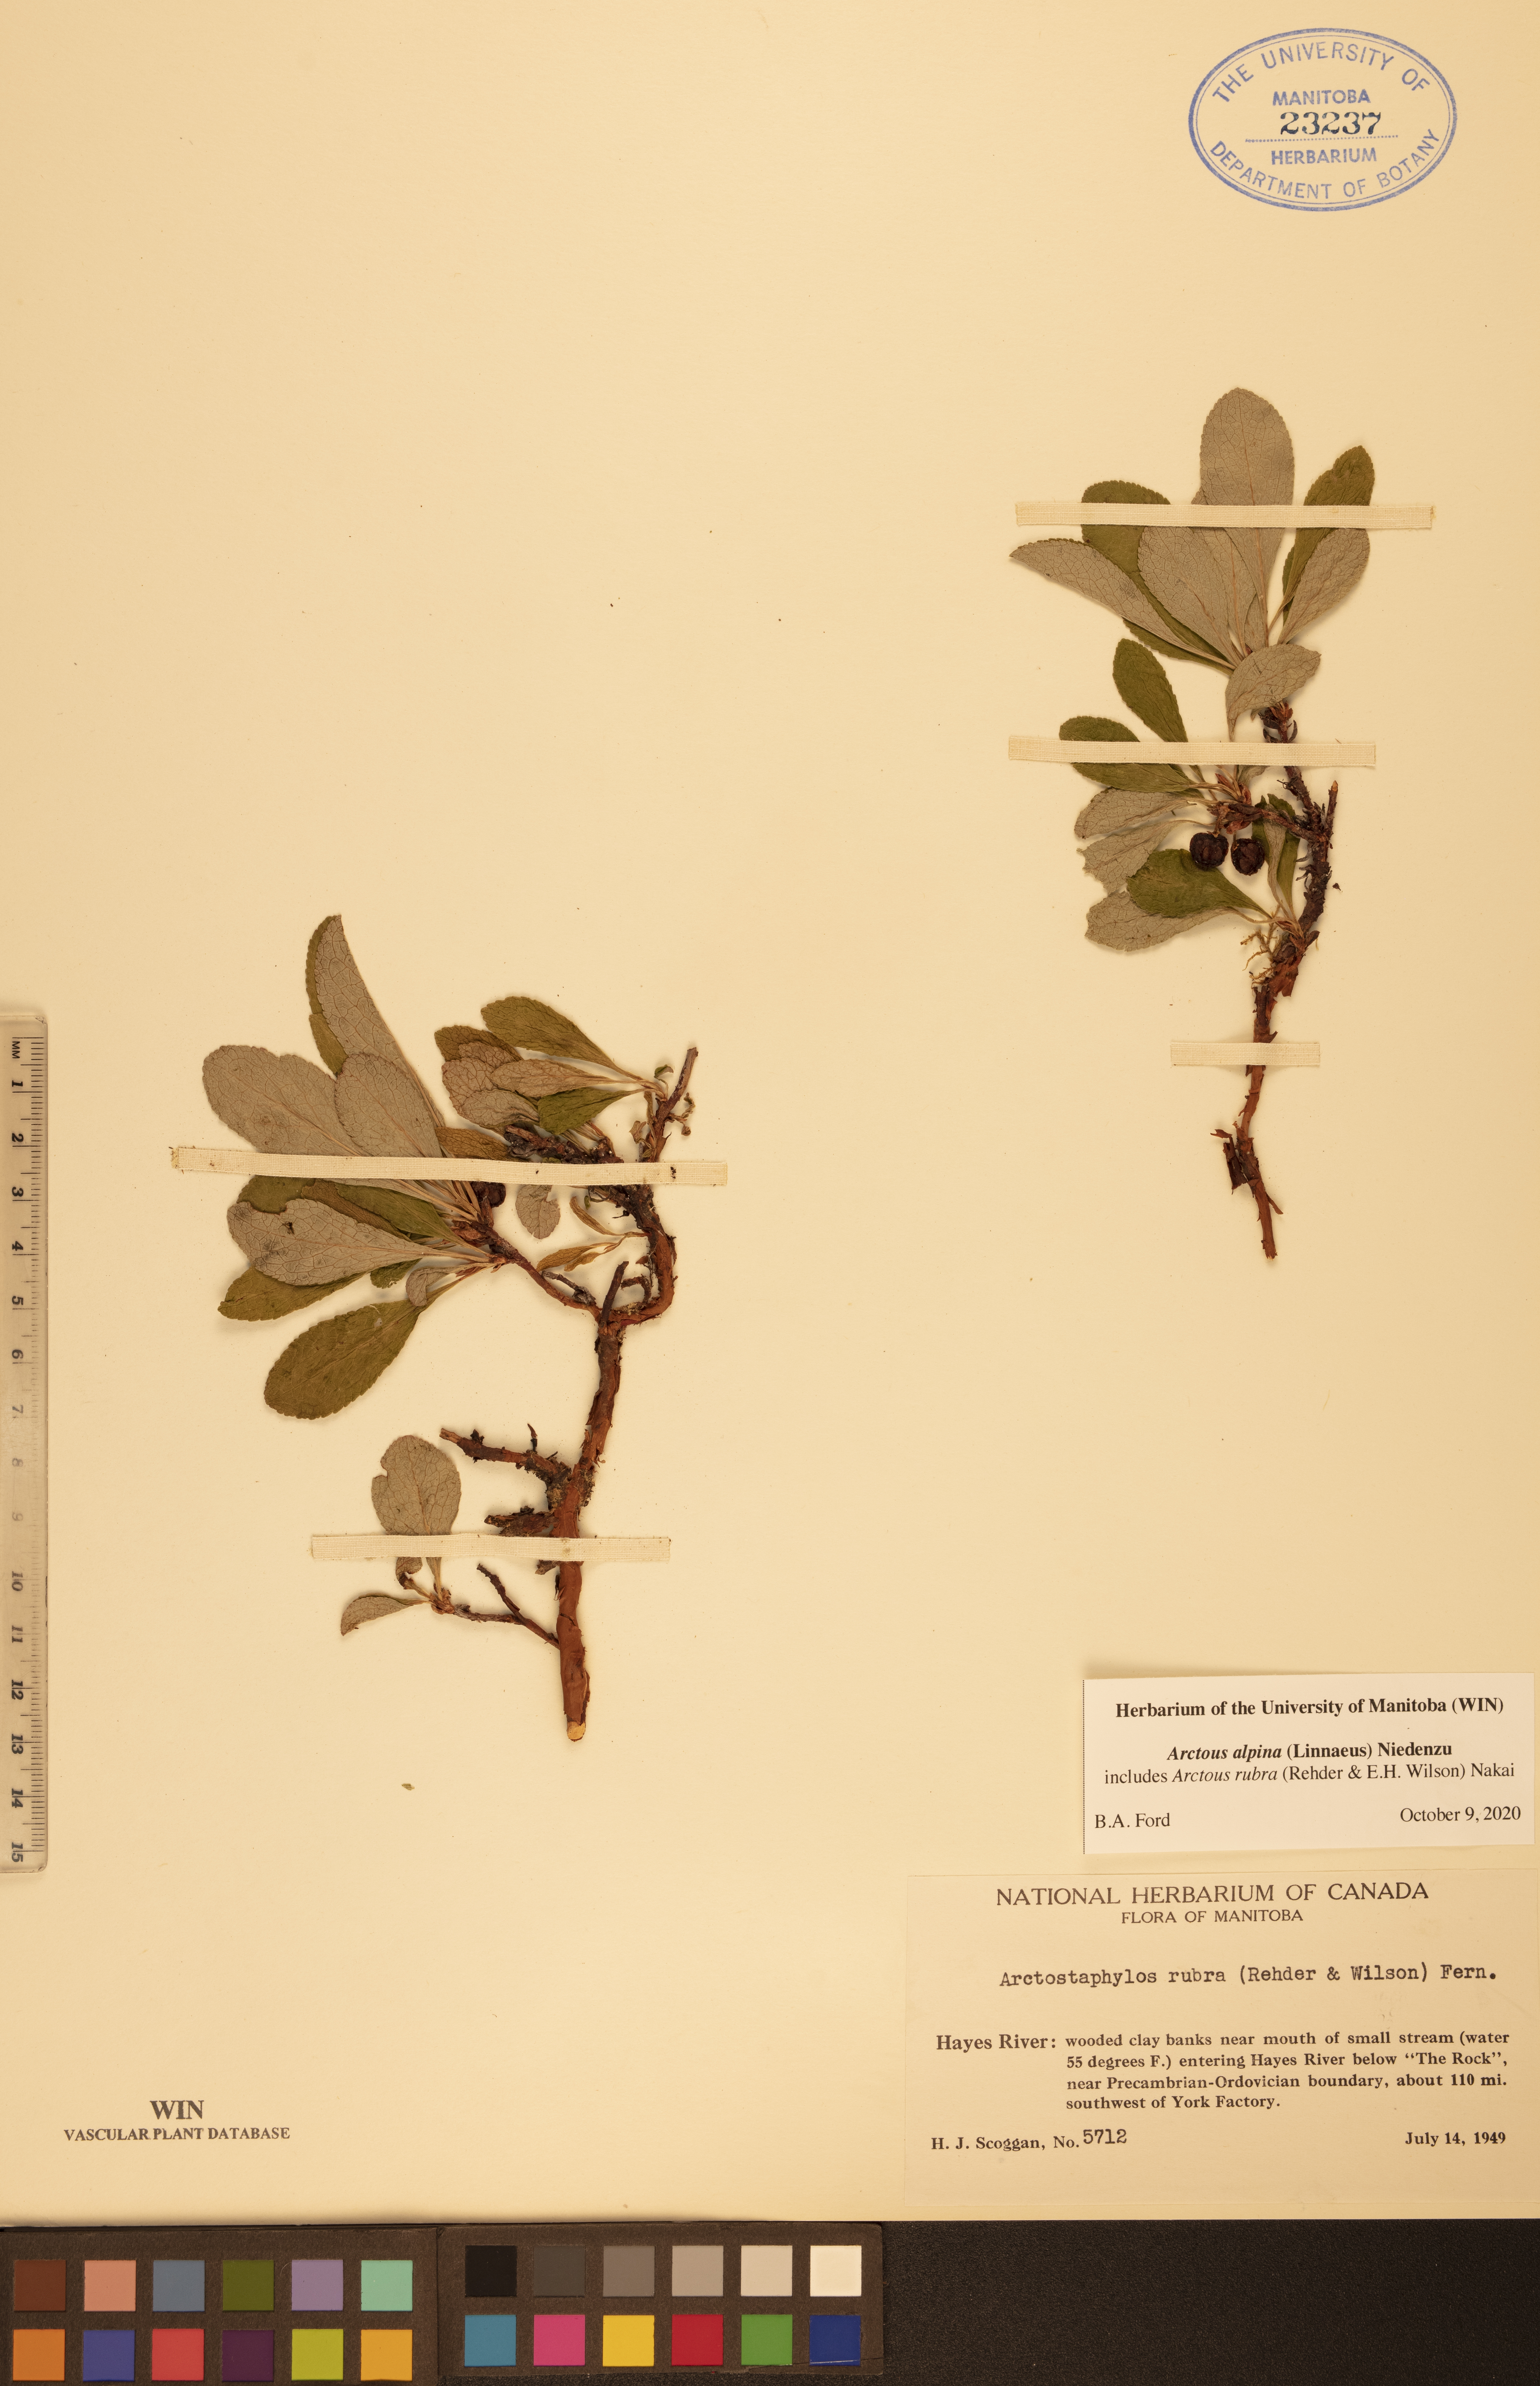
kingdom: Plantae
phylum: Tracheophyta
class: Magnoliopsida
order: Ericales
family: Ericaceae
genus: Arctostaphylos
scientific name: Arctostaphylos alpinus
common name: Alpine bearberry
